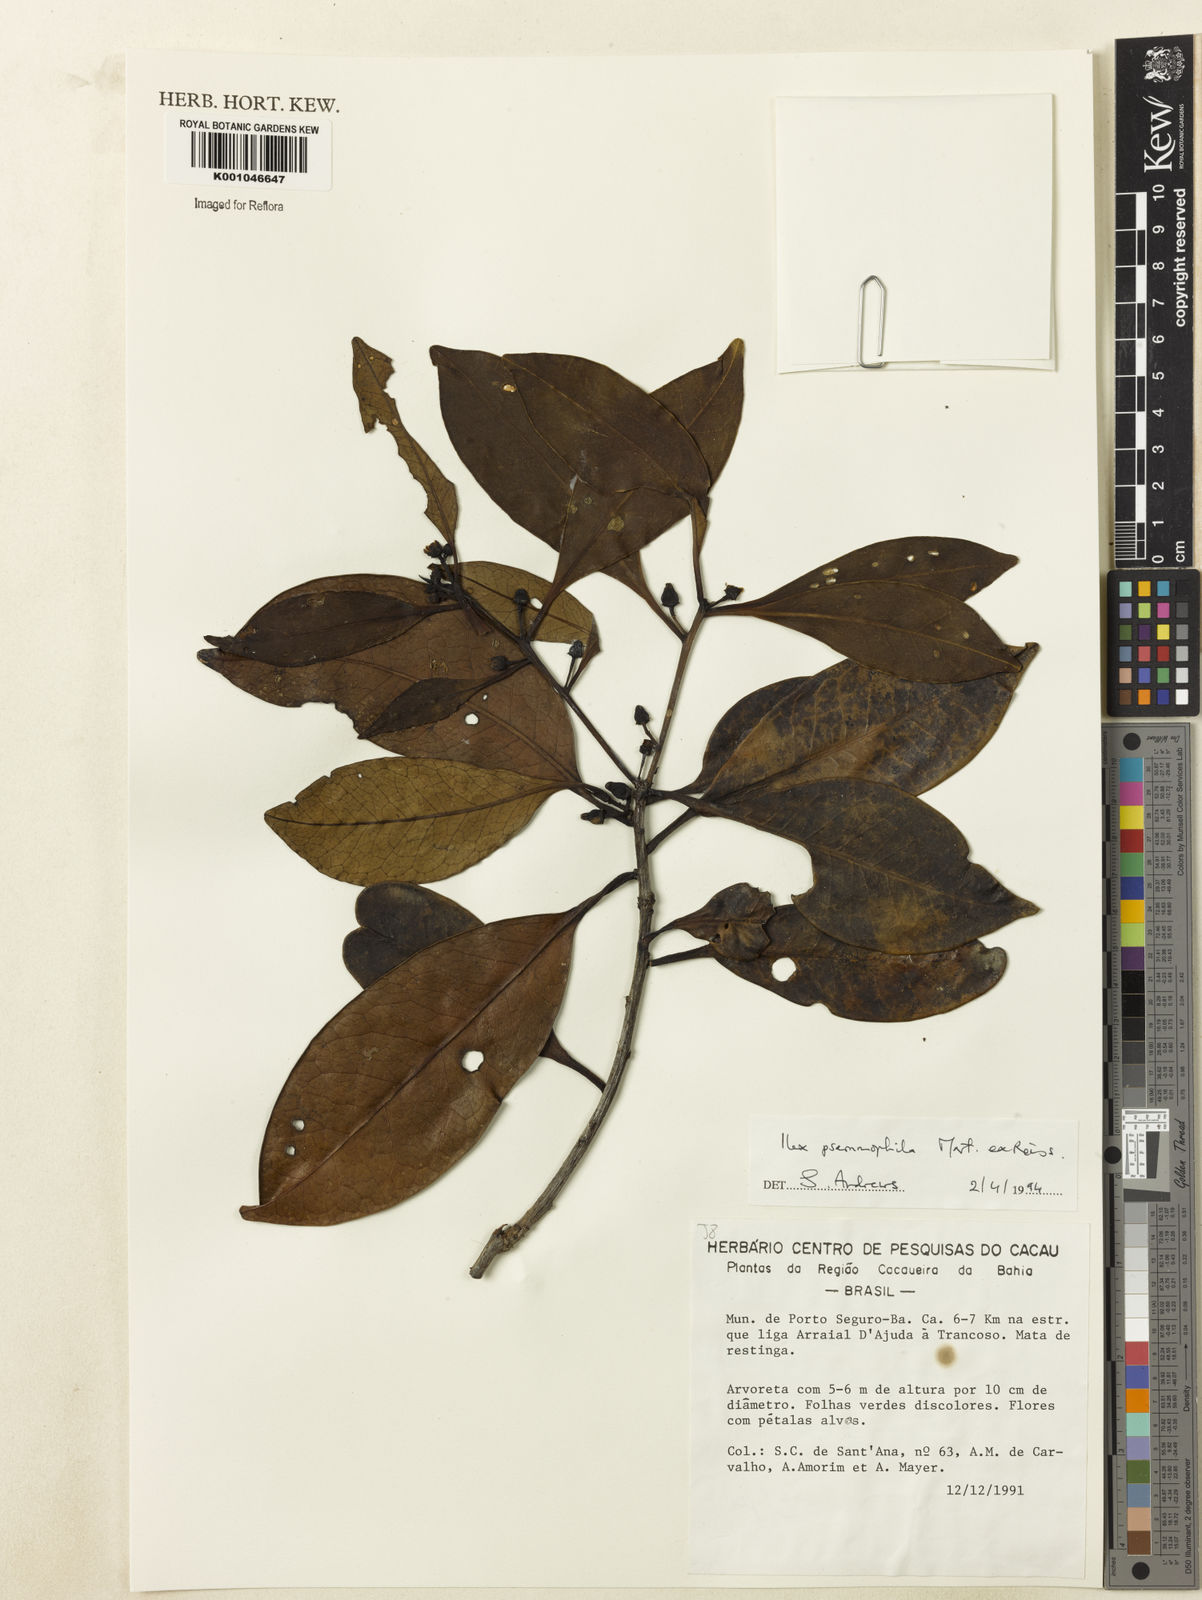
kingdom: Plantae
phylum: Tracheophyta
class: Magnoliopsida
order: Aquifoliales
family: Aquifoliaceae
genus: Ilex
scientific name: Ilex psammophila
